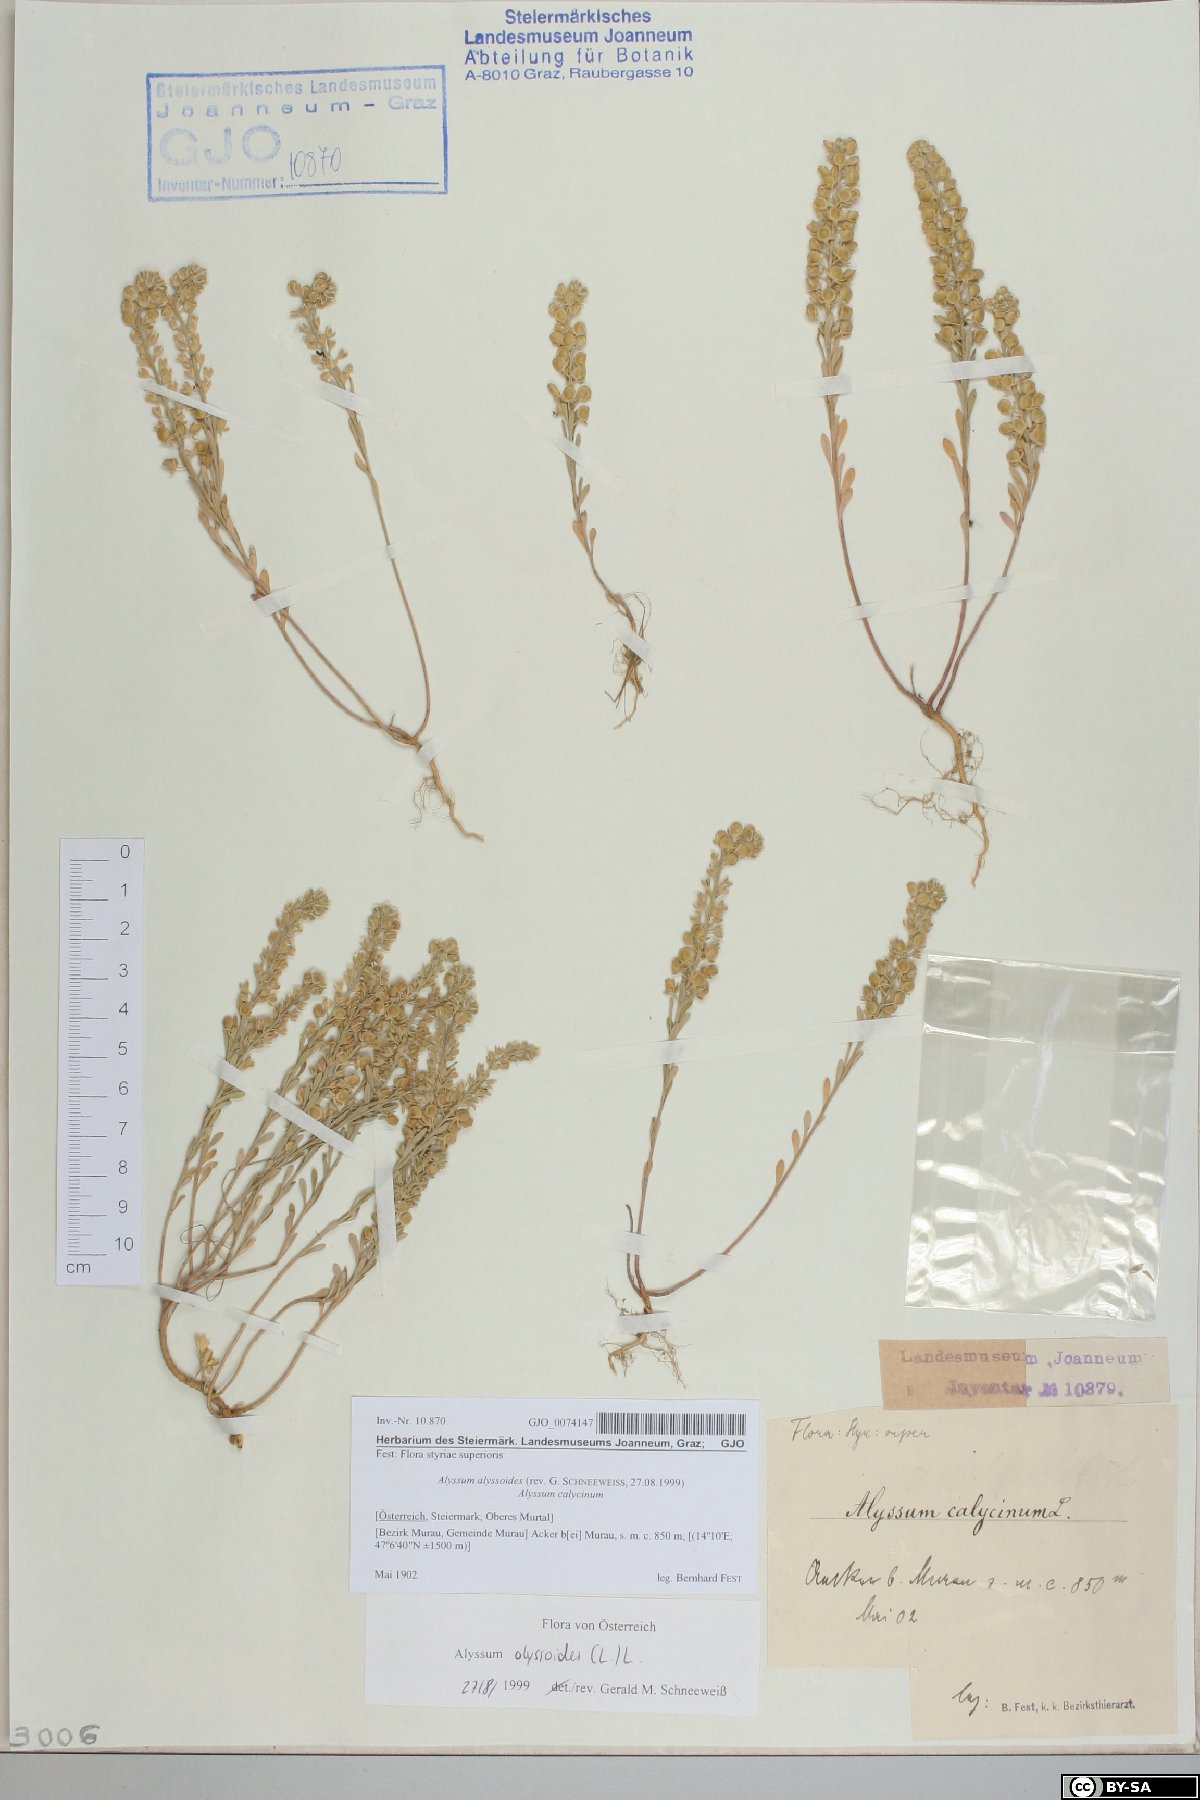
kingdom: Plantae
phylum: Tracheophyta
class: Magnoliopsida
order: Brassicales
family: Brassicaceae
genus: Alyssum
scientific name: Alyssum alyssoides
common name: Small alison
